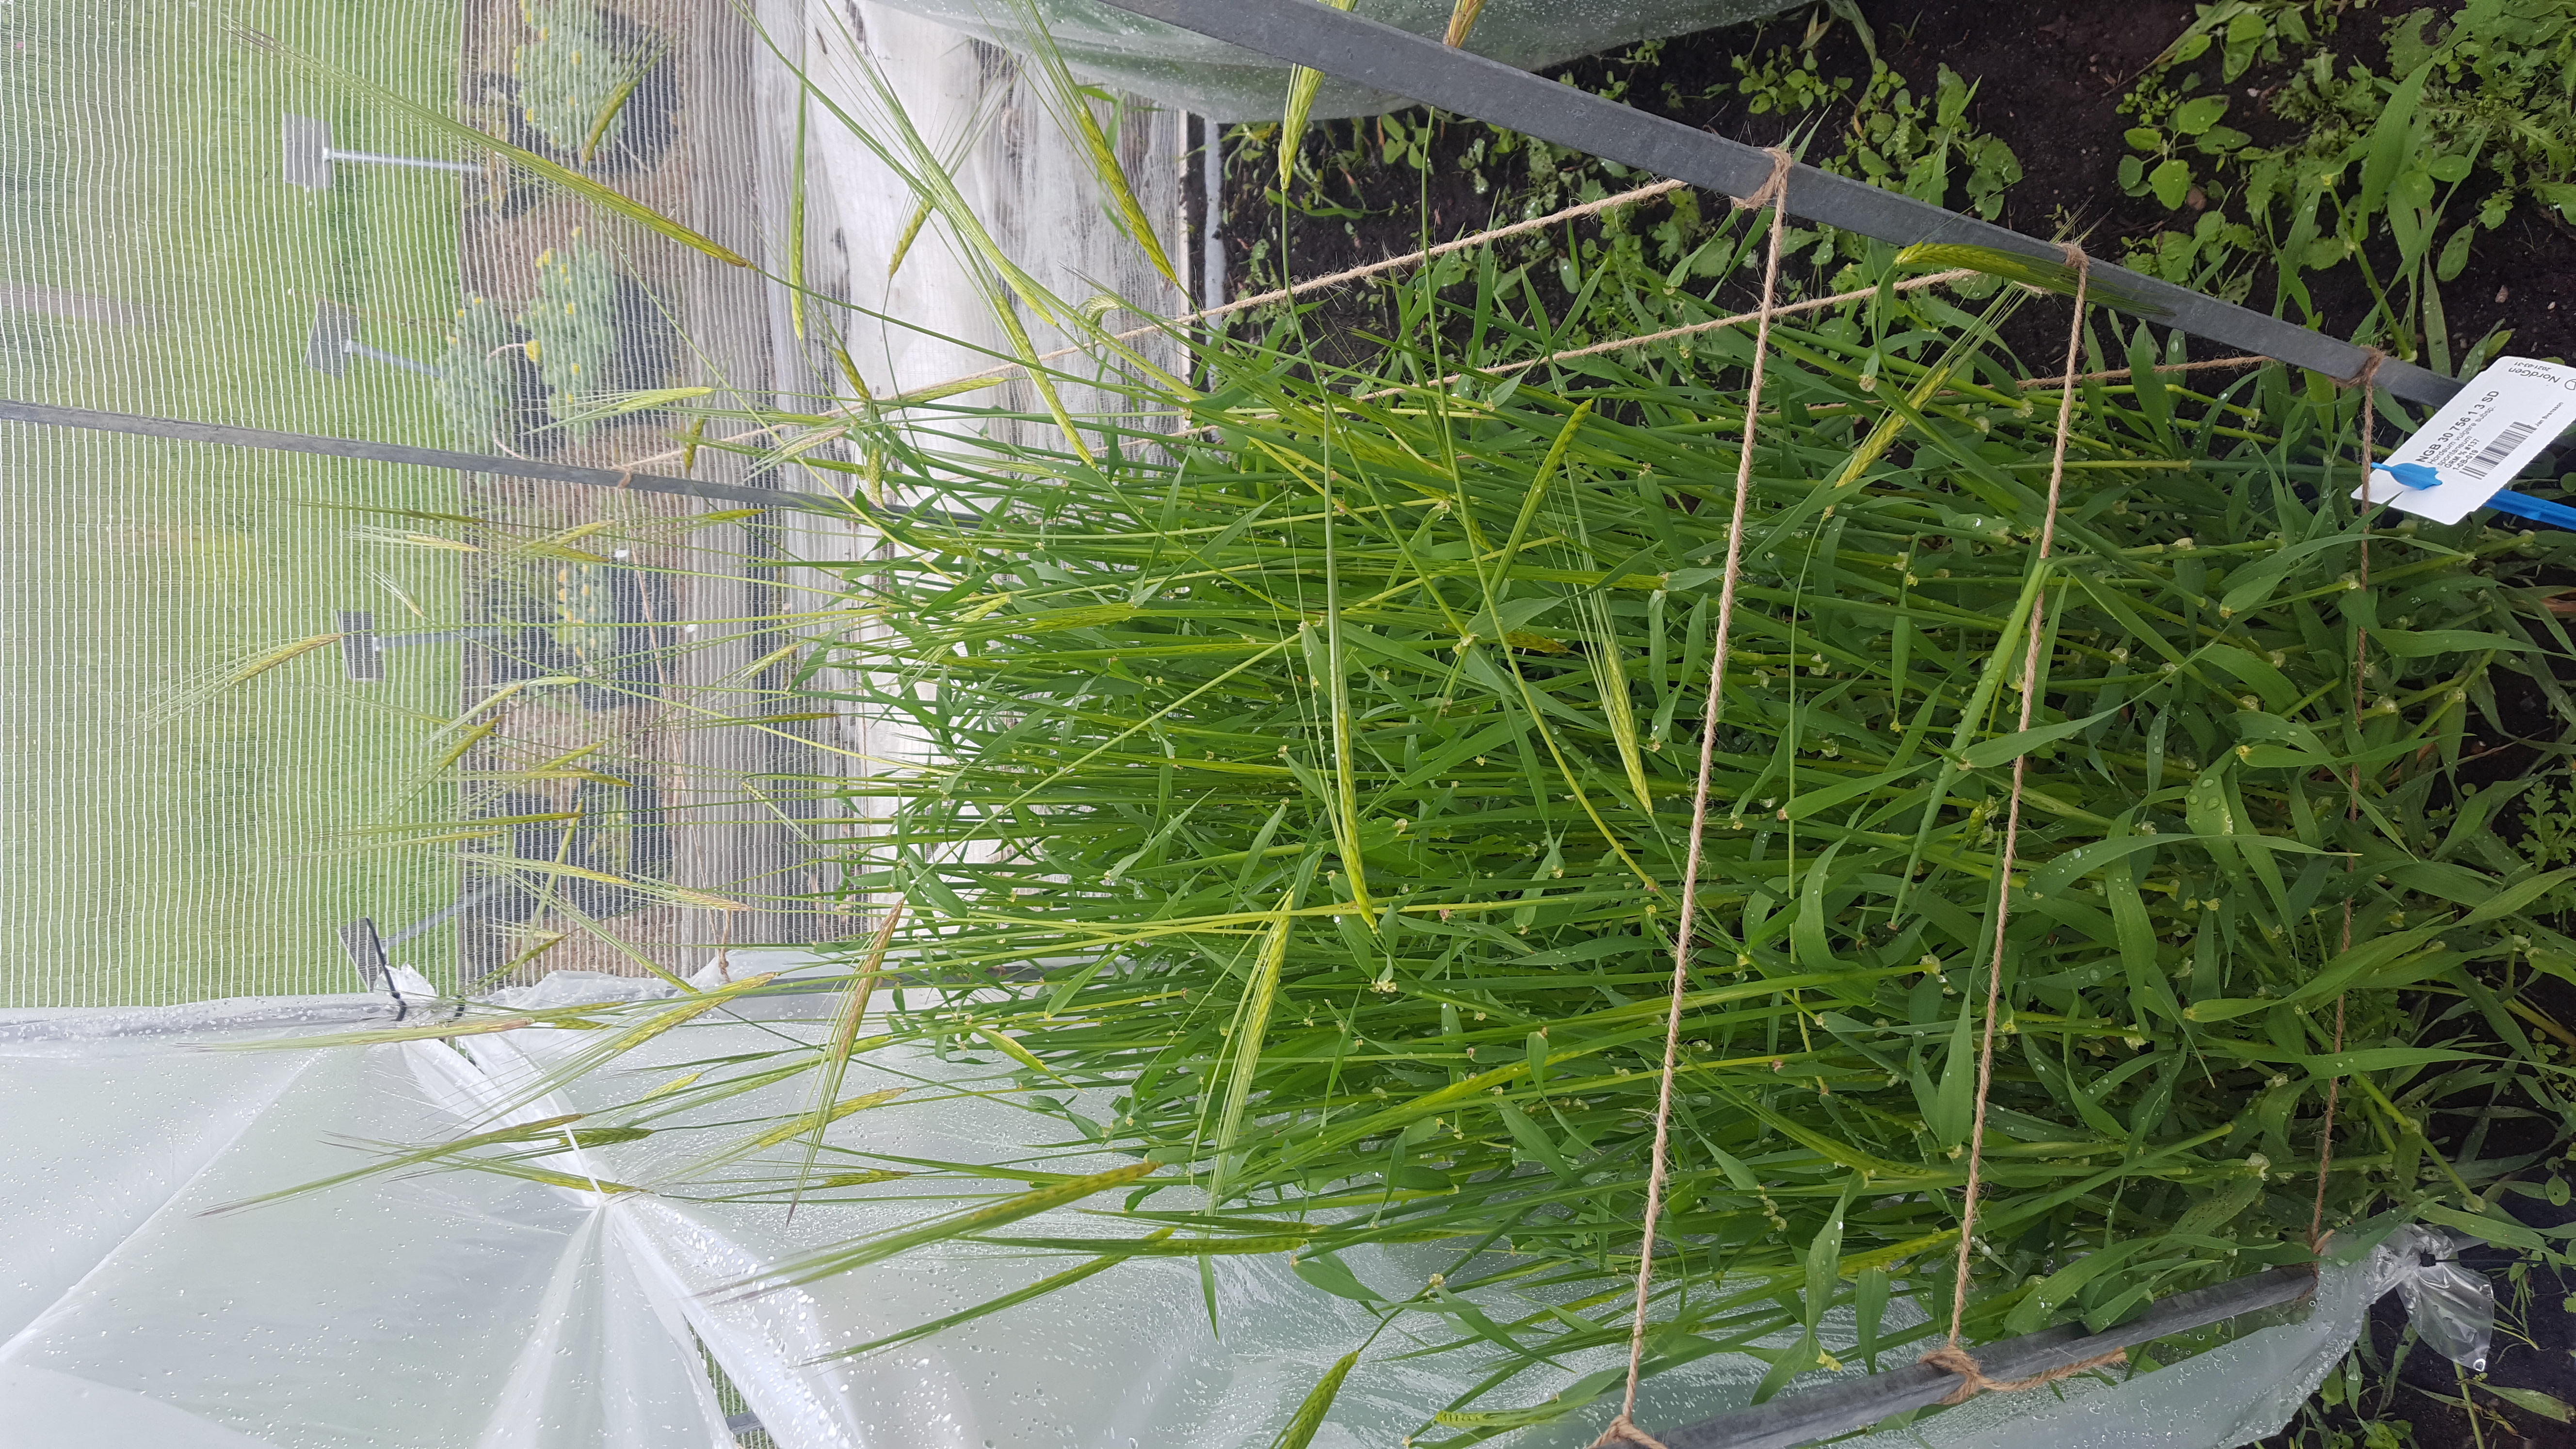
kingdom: Plantae
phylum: Tracheophyta
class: Liliopsida
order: Poales
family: Poaceae
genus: Hordeum
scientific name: Hordeum spontaneum
